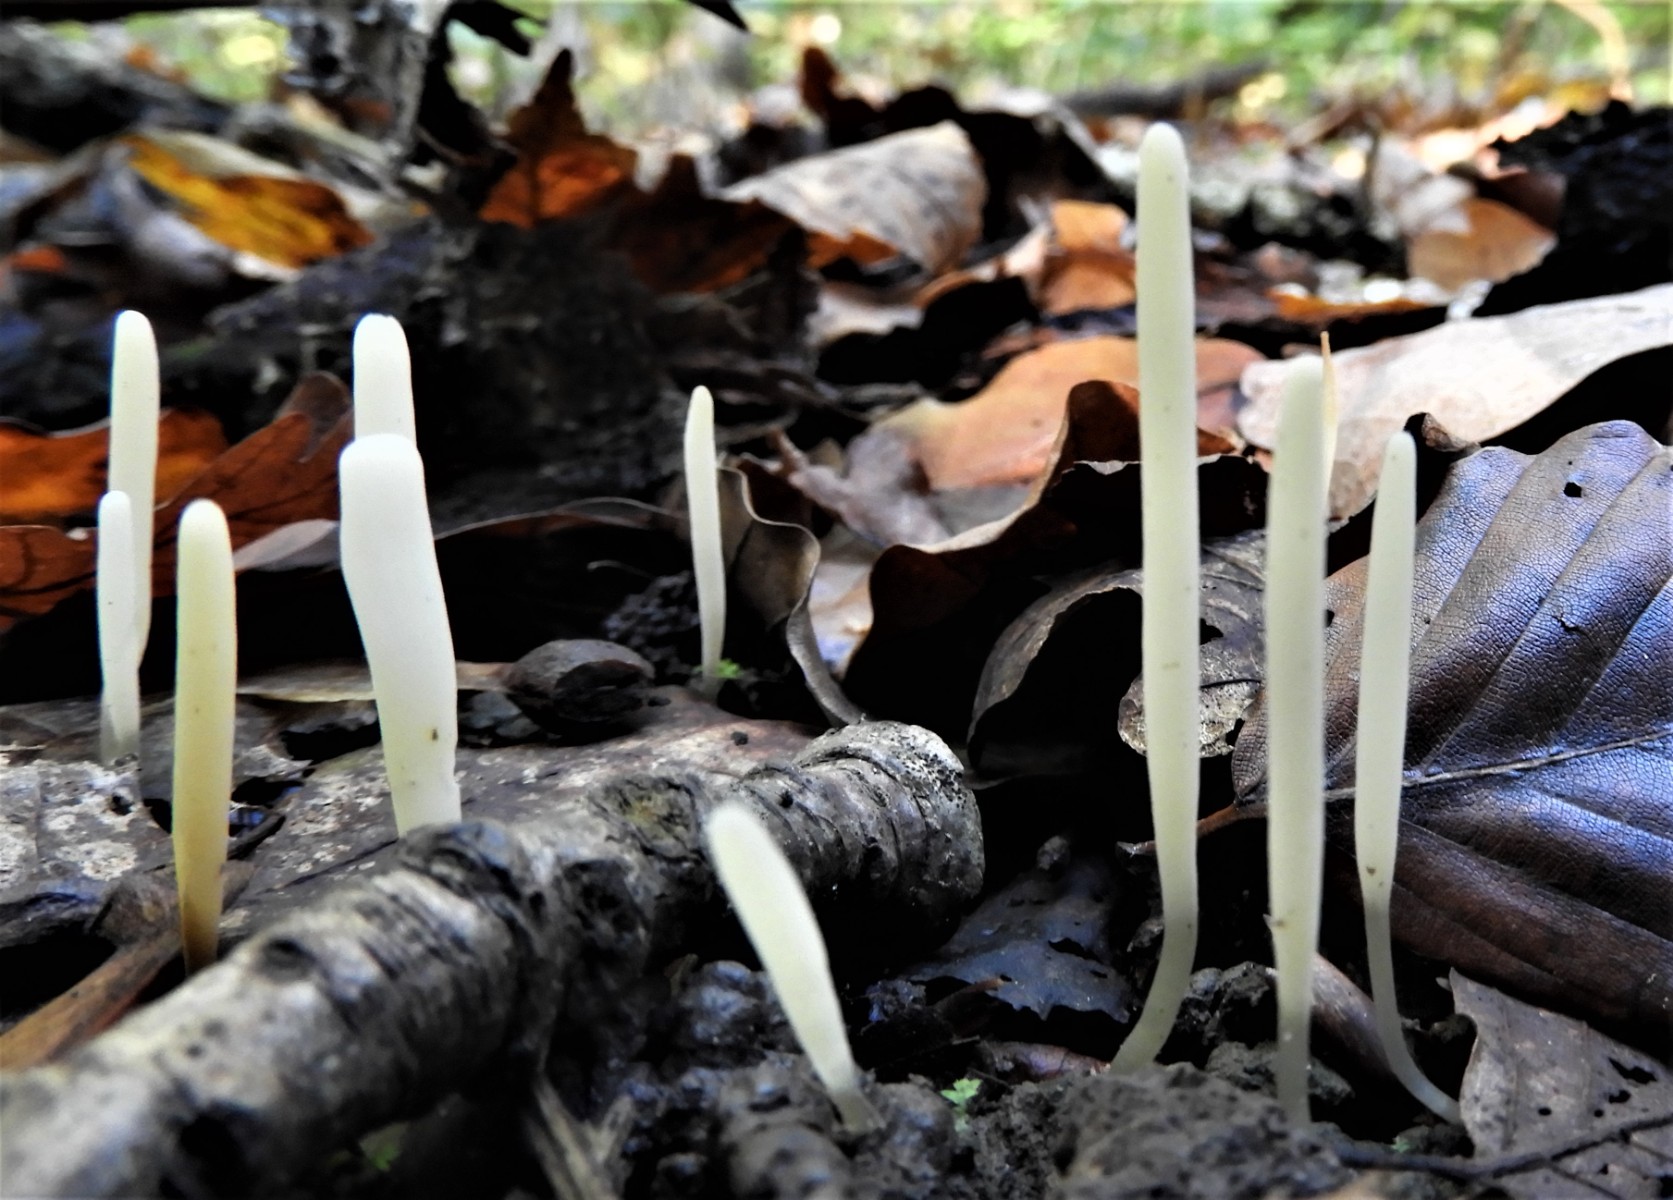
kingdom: Fungi
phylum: Basidiomycota
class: Agaricomycetes
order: Agaricales
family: Clavariaceae
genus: Clavaria
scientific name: Clavaria falcata
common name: hvid køllesvamp
